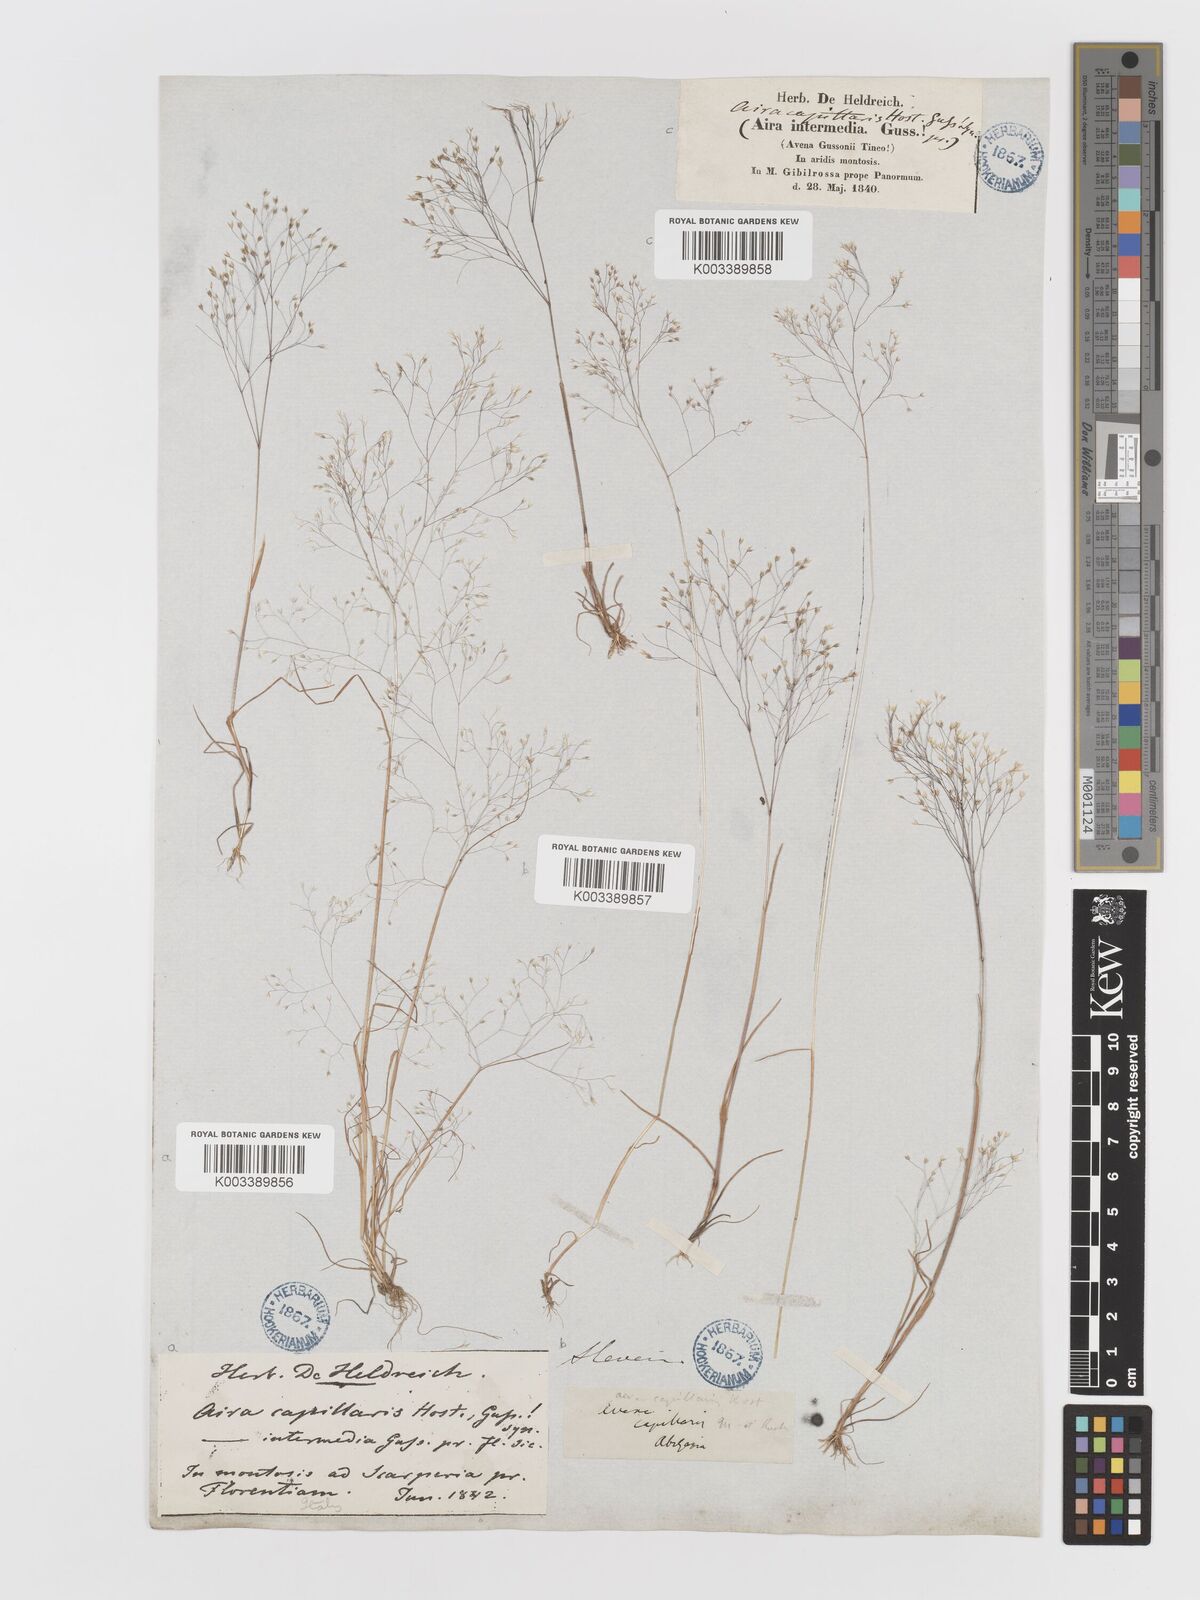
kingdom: Plantae
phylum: Tracheophyta
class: Liliopsida
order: Poales
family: Poaceae
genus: Aira
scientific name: Aira elegans
